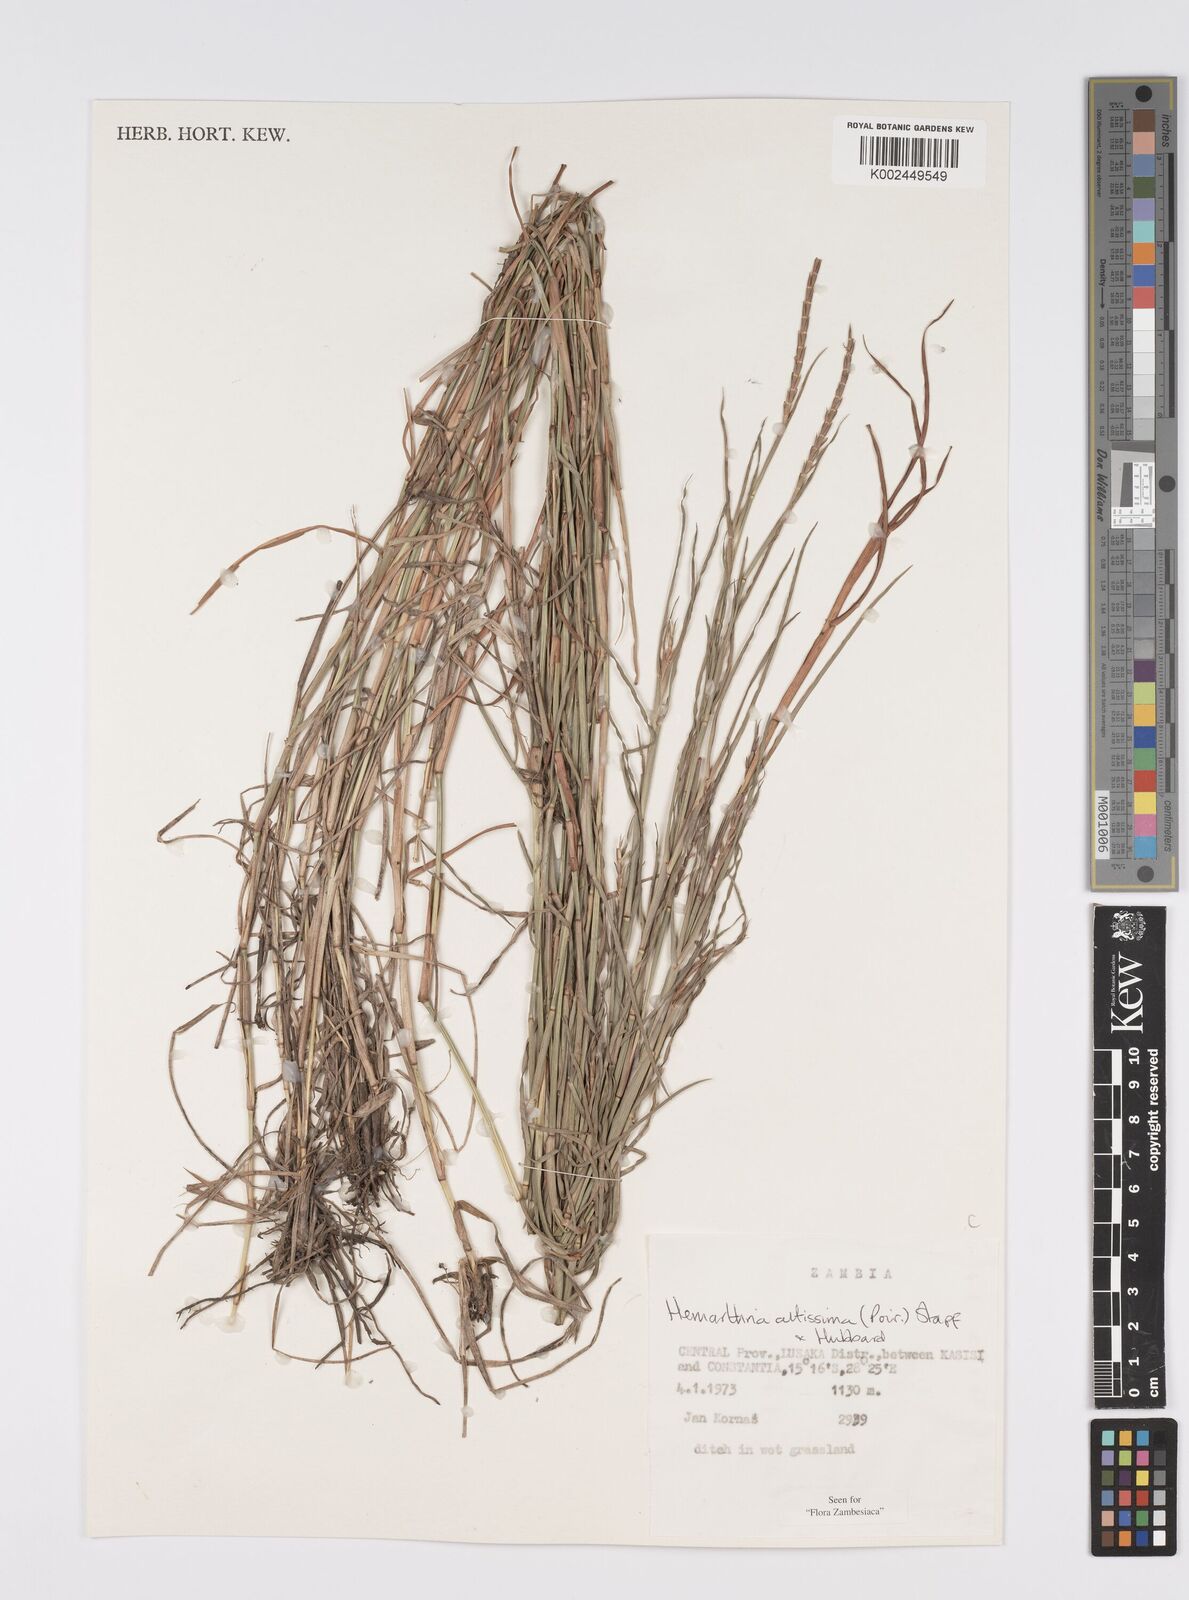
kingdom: Plantae
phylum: Tracheophyta
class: Liliopsida
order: Poales
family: Poaceae
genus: Hemarthria
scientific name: Hemarthria altissima
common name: African jointgrass
